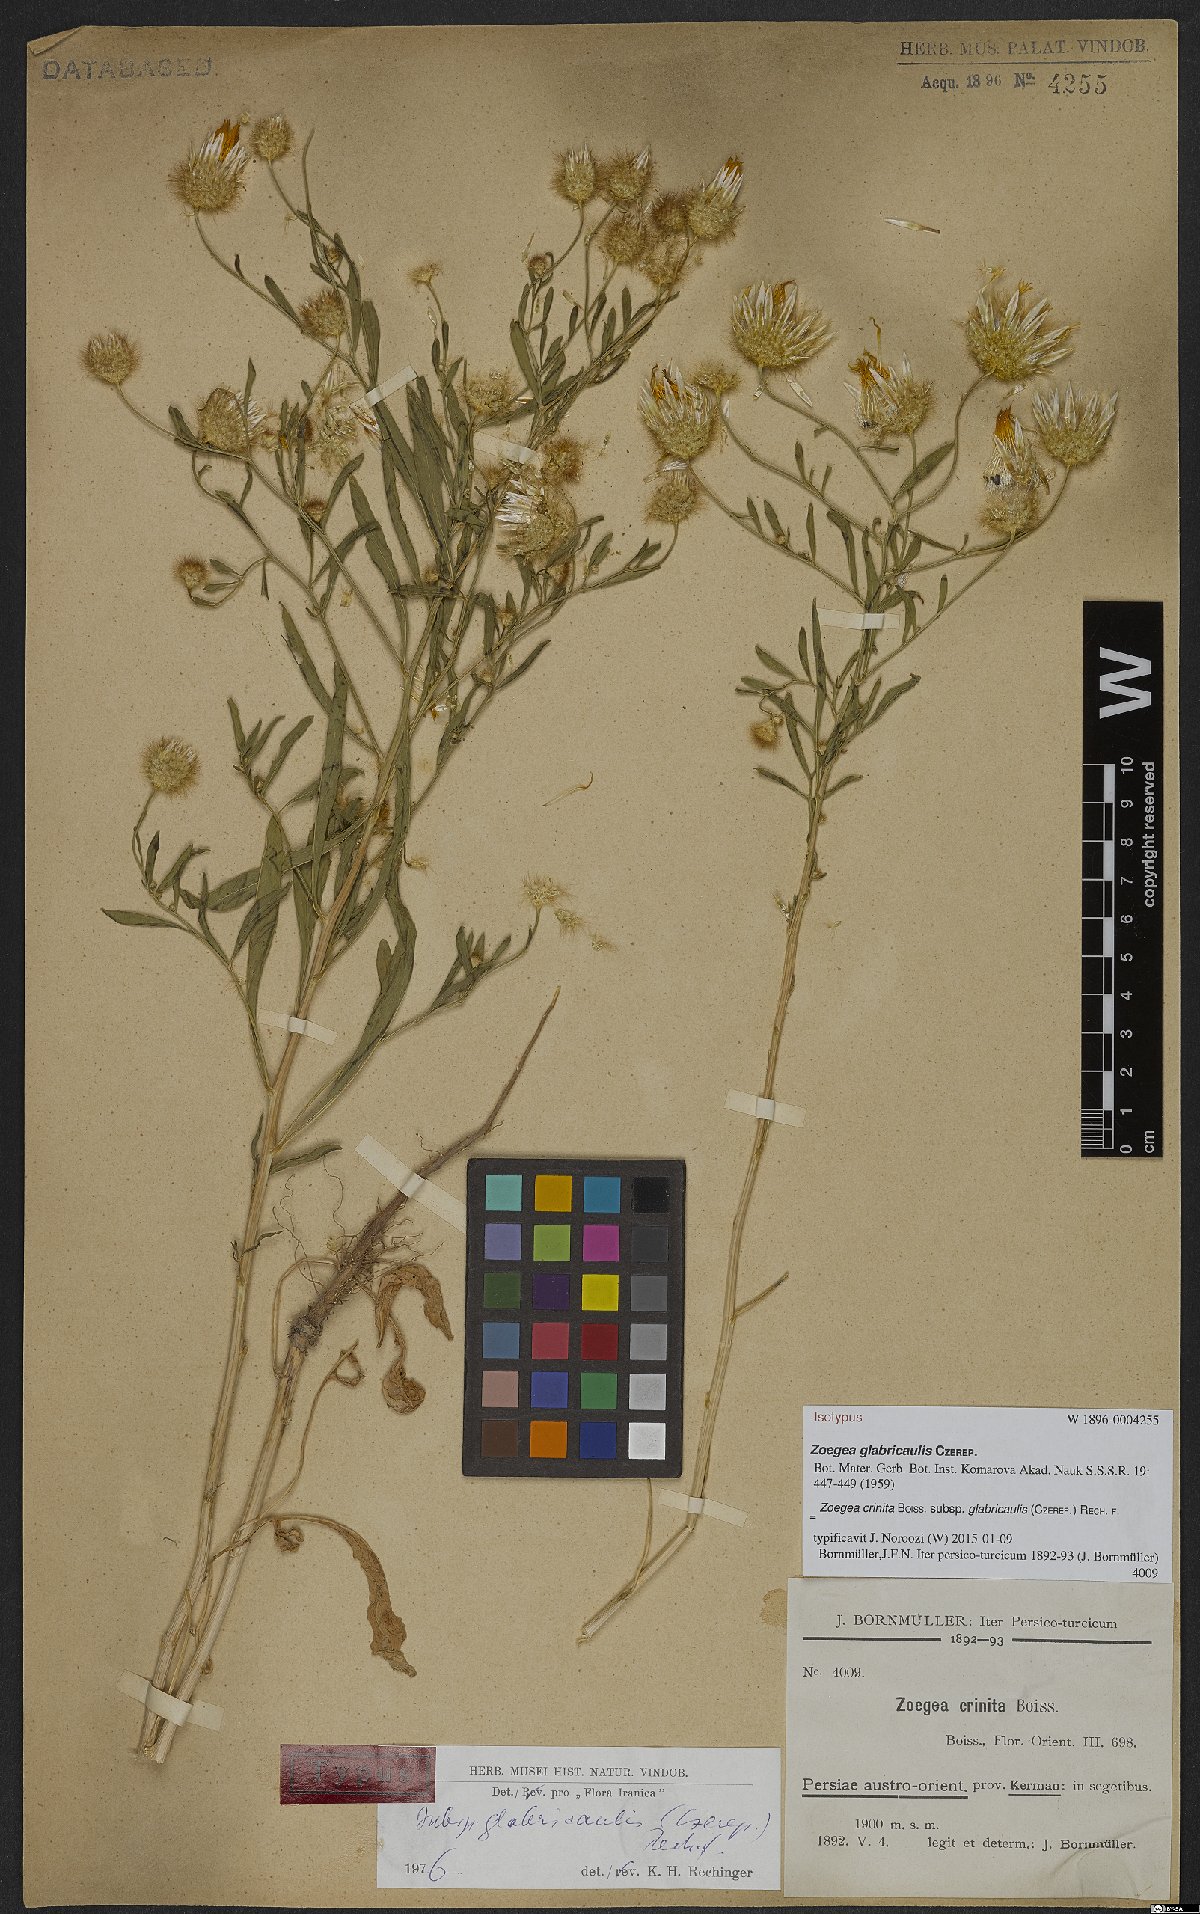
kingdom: Plantae
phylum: Tracheophyta
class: Magnoliopsida
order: Asterales
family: Asteraceae
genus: Zoegea
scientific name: Zoegea crinita
